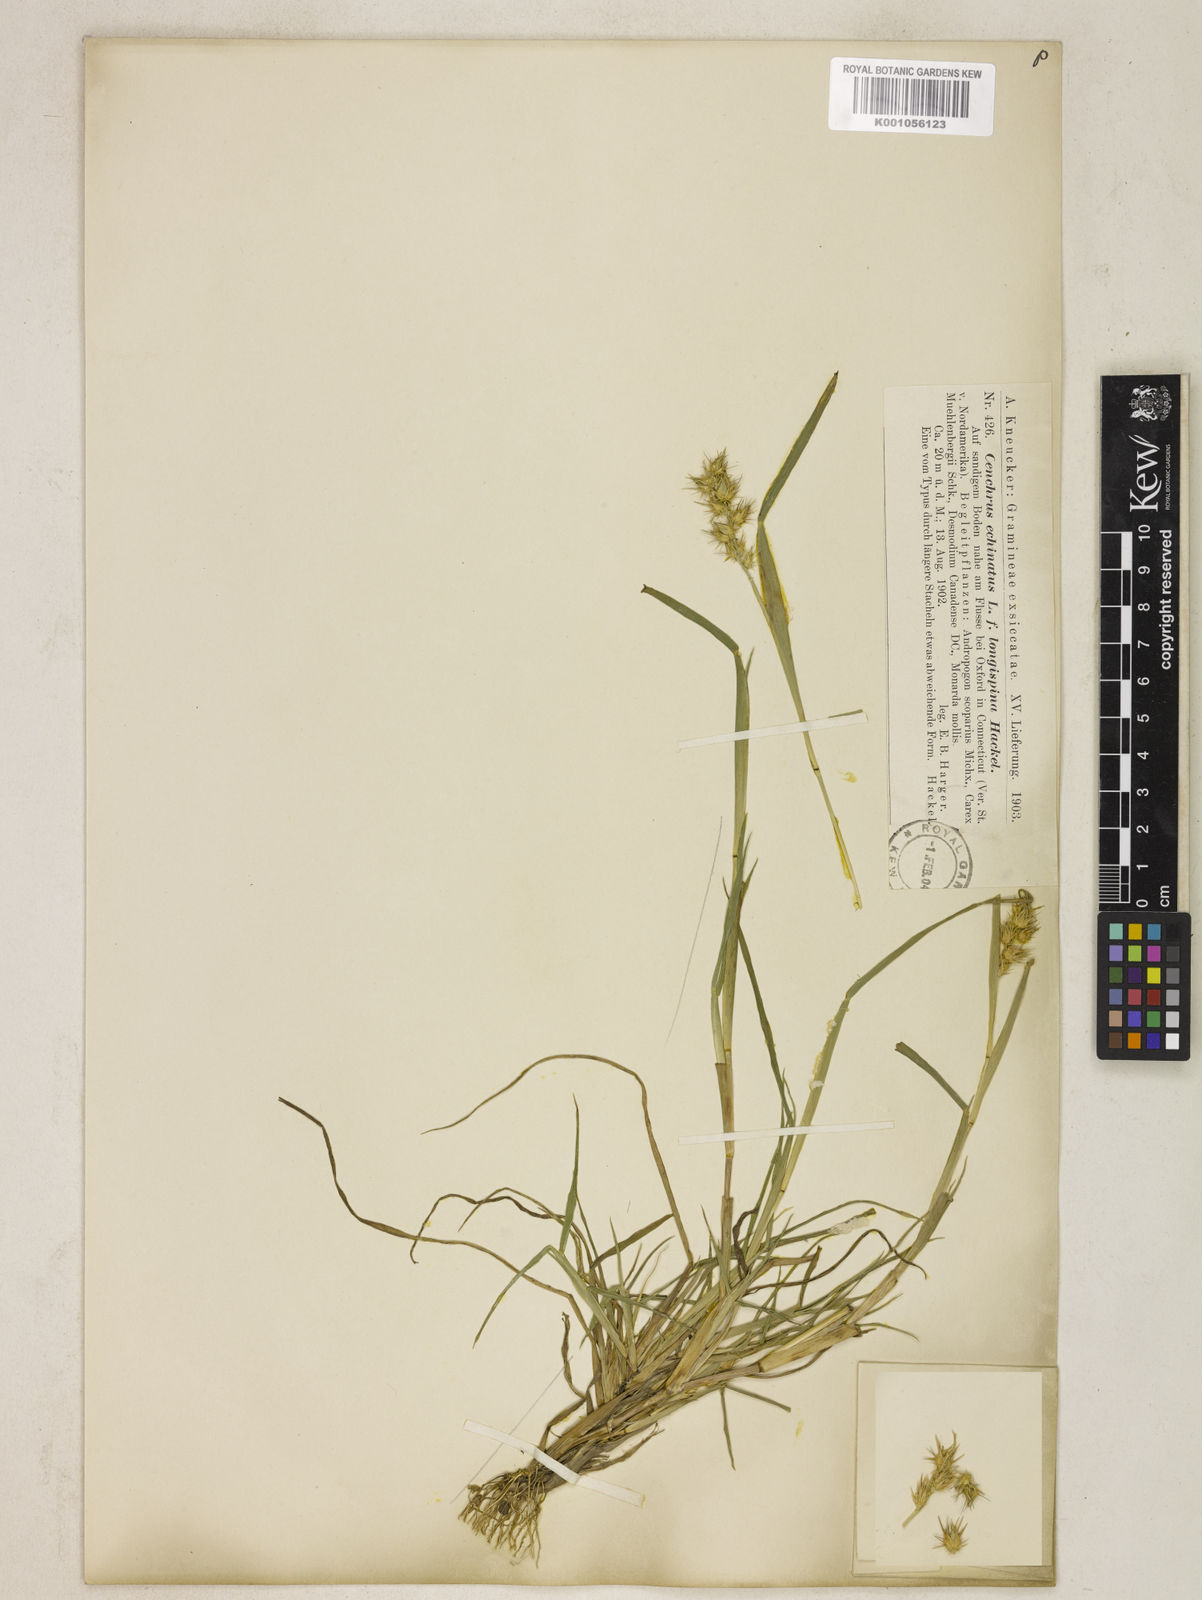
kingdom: Plantae
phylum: Tracheophyta
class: Liliopsida
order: Poales
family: Poaceae
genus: Cenchrus
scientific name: Cenchrus echinatus
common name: Southern sandbur
